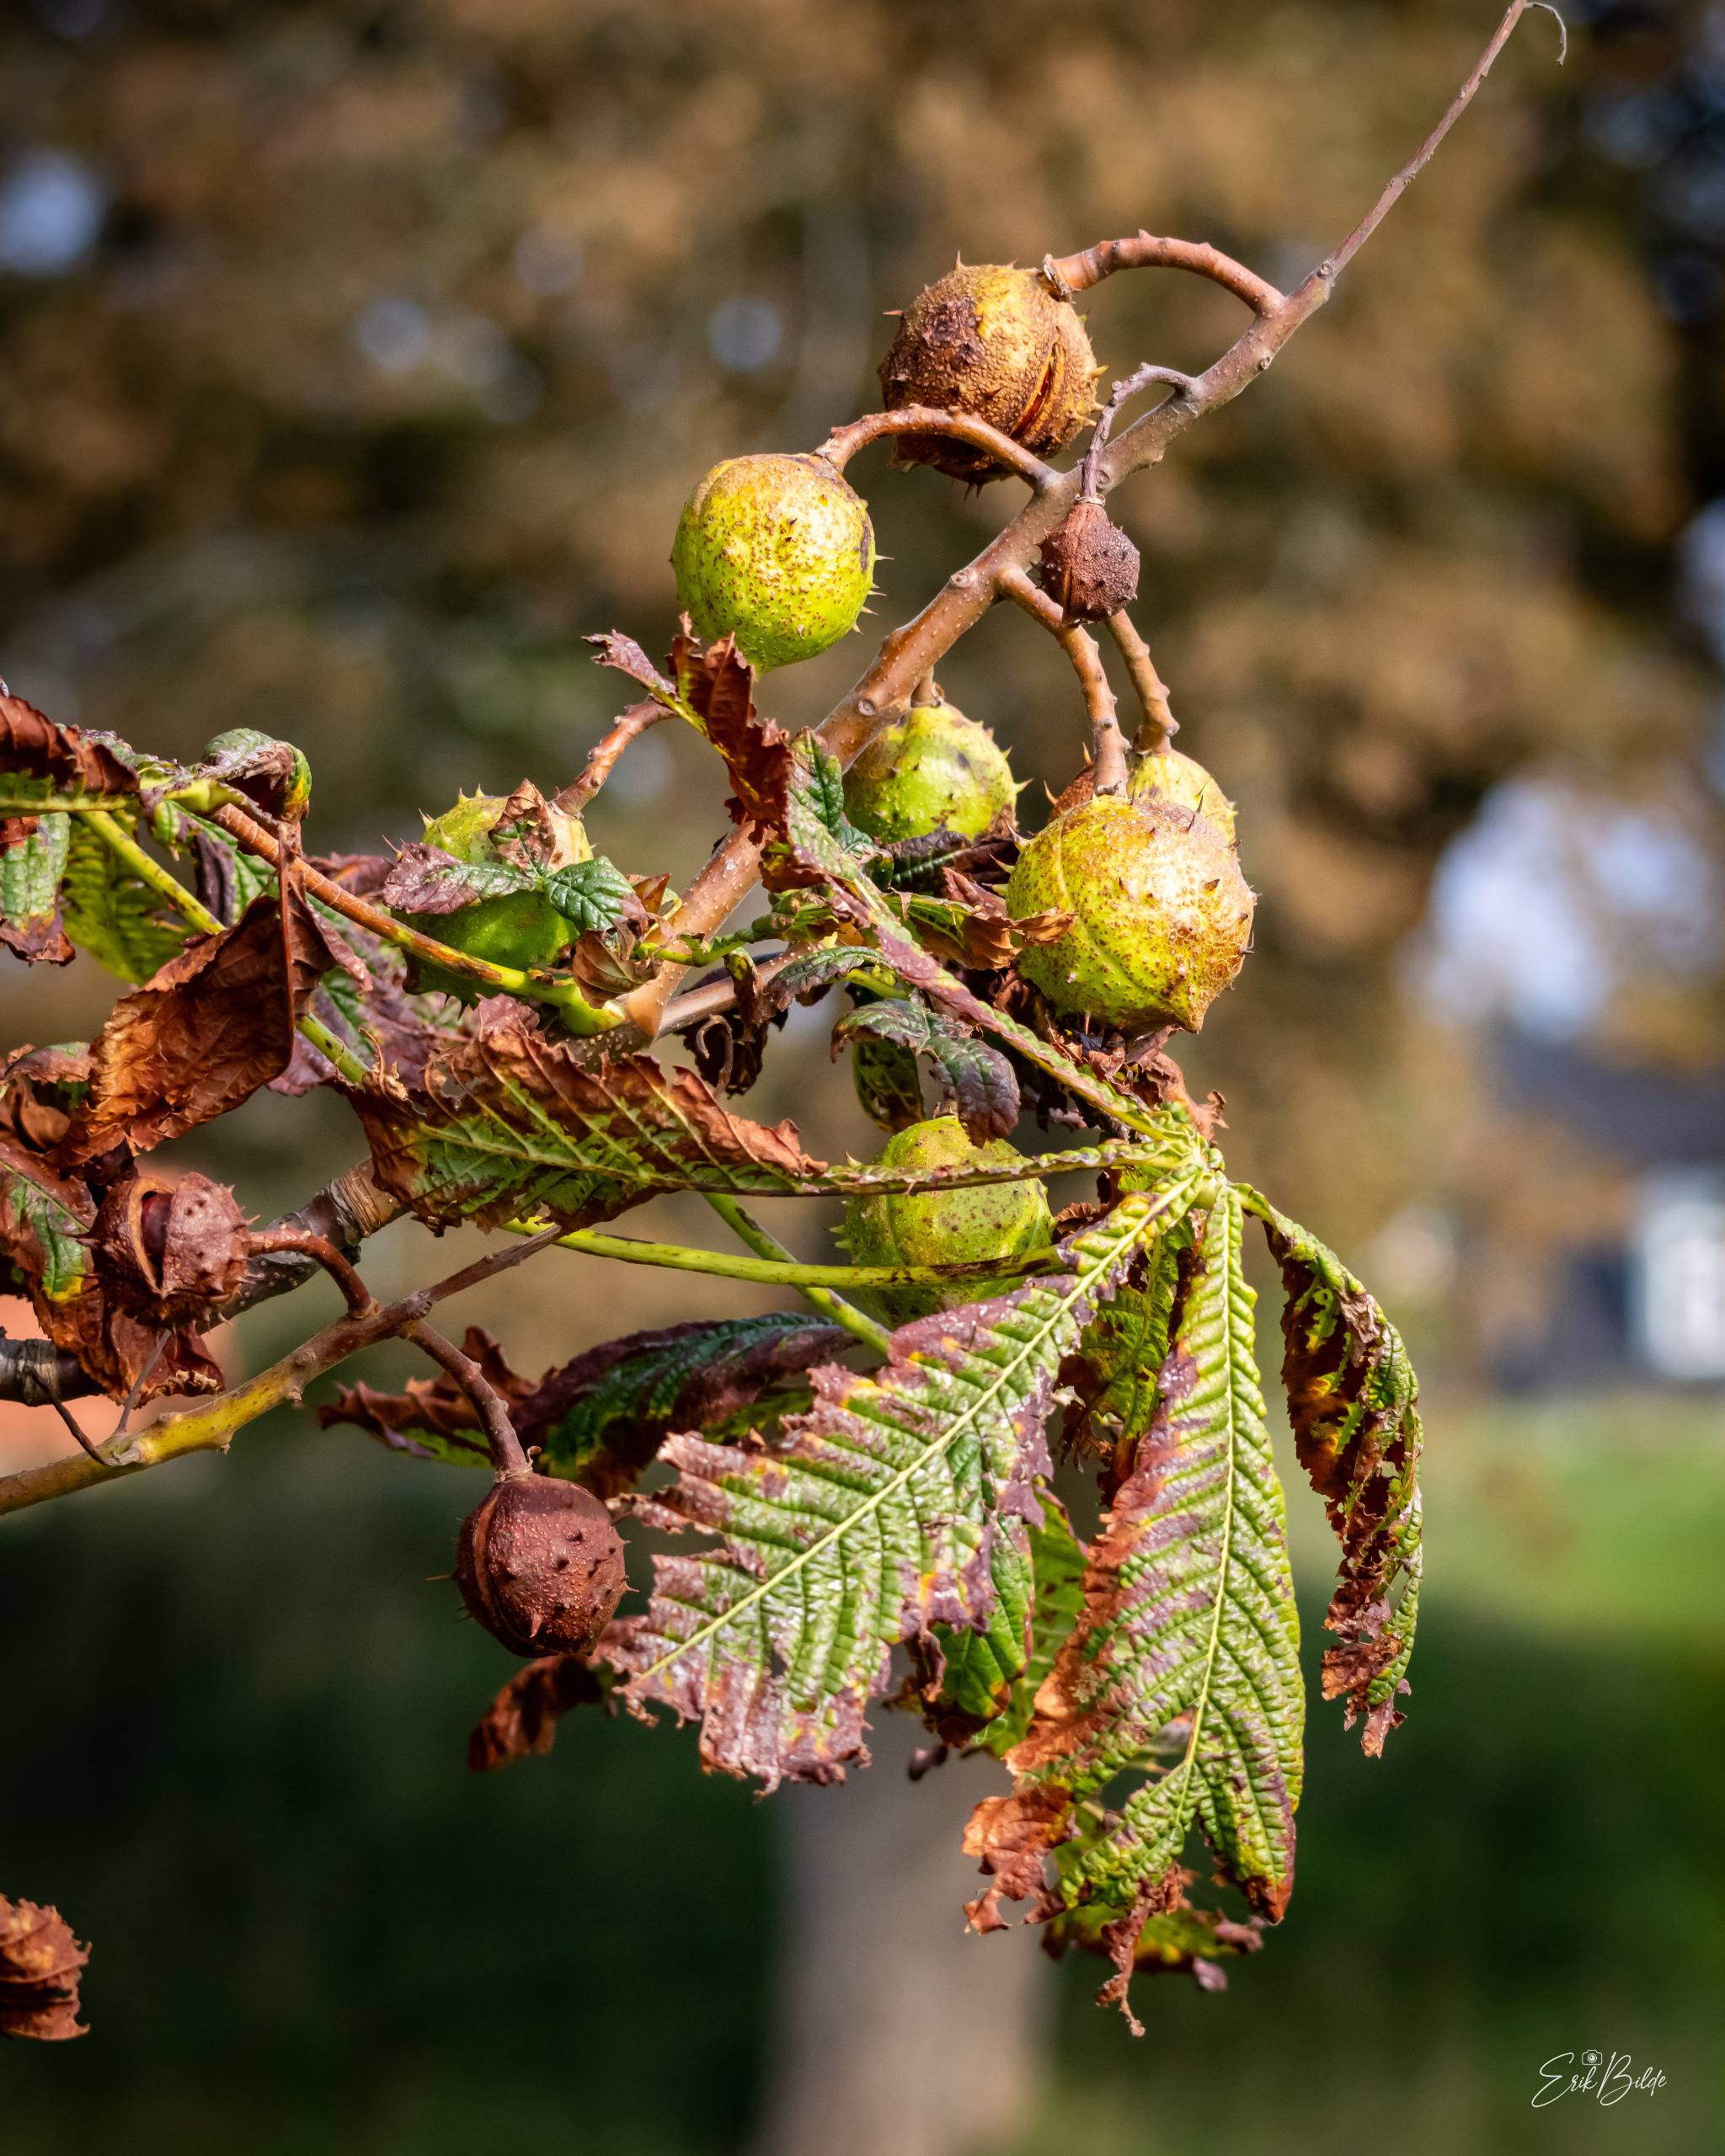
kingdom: Plantae
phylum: Tracheophyta
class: Magnoliopsida
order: Sapindales
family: Sapindaceae
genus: Aesculus
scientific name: Aesculus hippocastanum
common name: Hestekastanie
